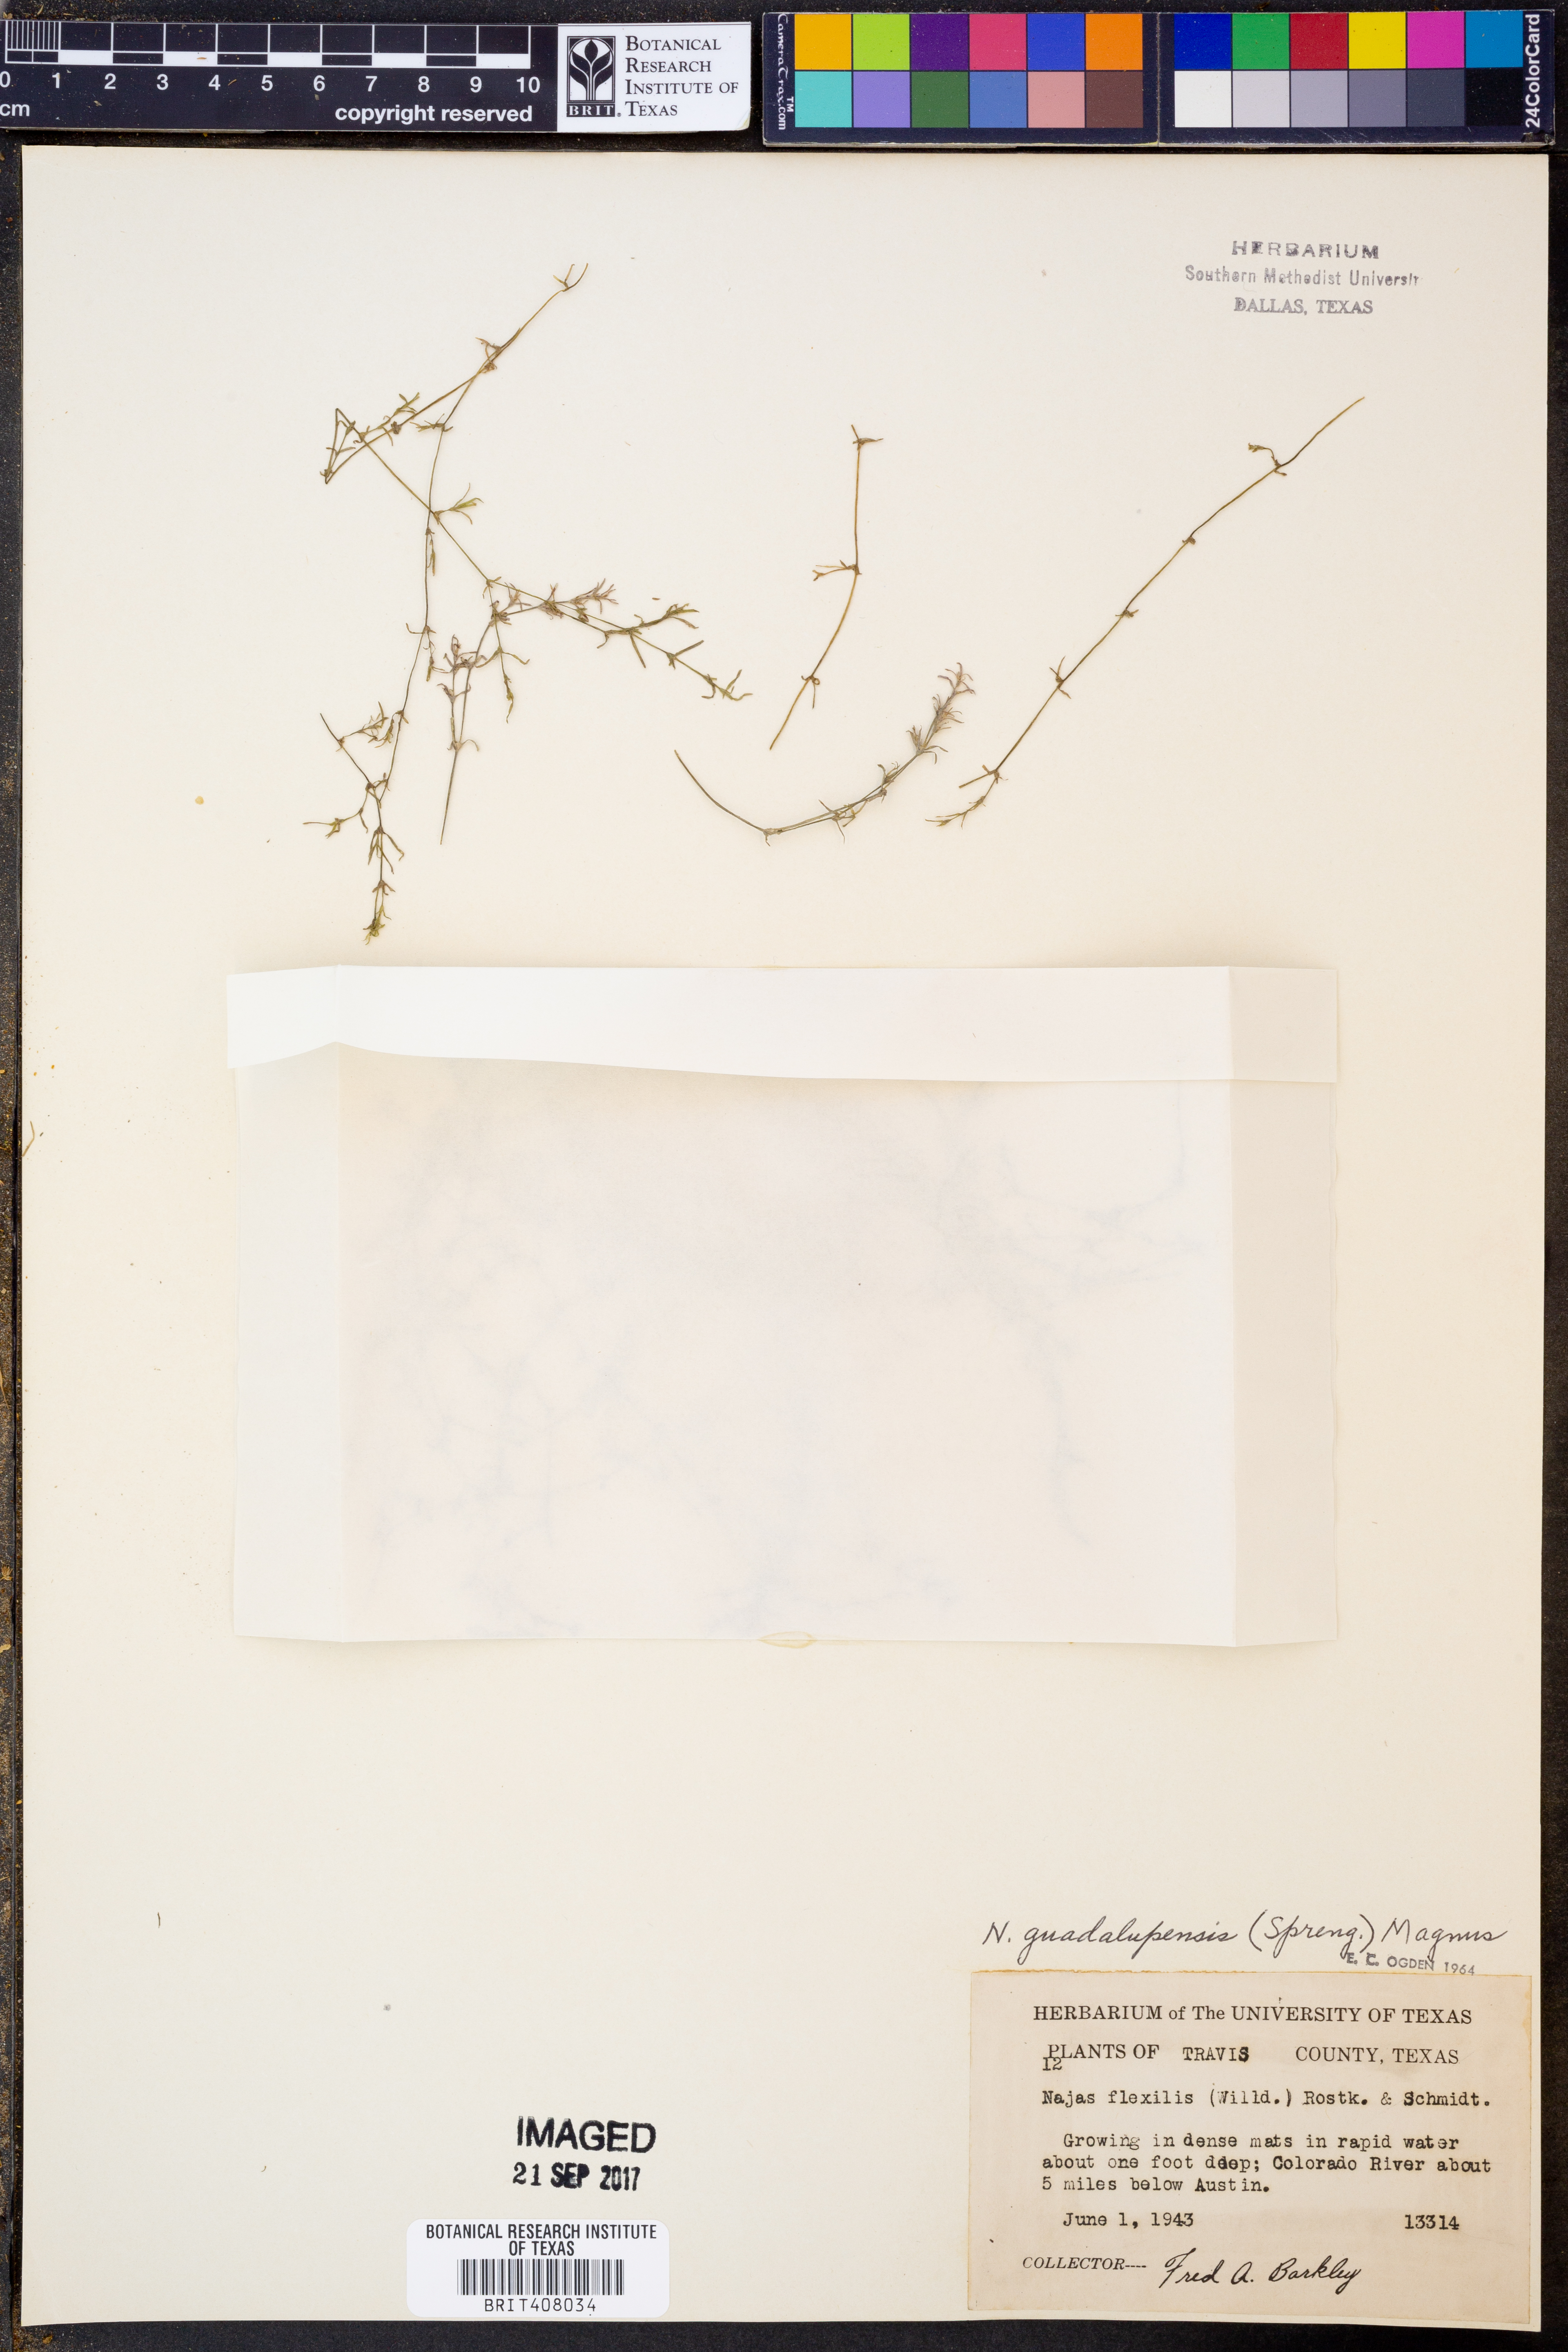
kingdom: Plantae
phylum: Tracheophyta
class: Liliopsida
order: Alismatales
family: Hydrocharitaceae
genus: Najas
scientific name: Najas guadalupensis
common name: Southern naiad
